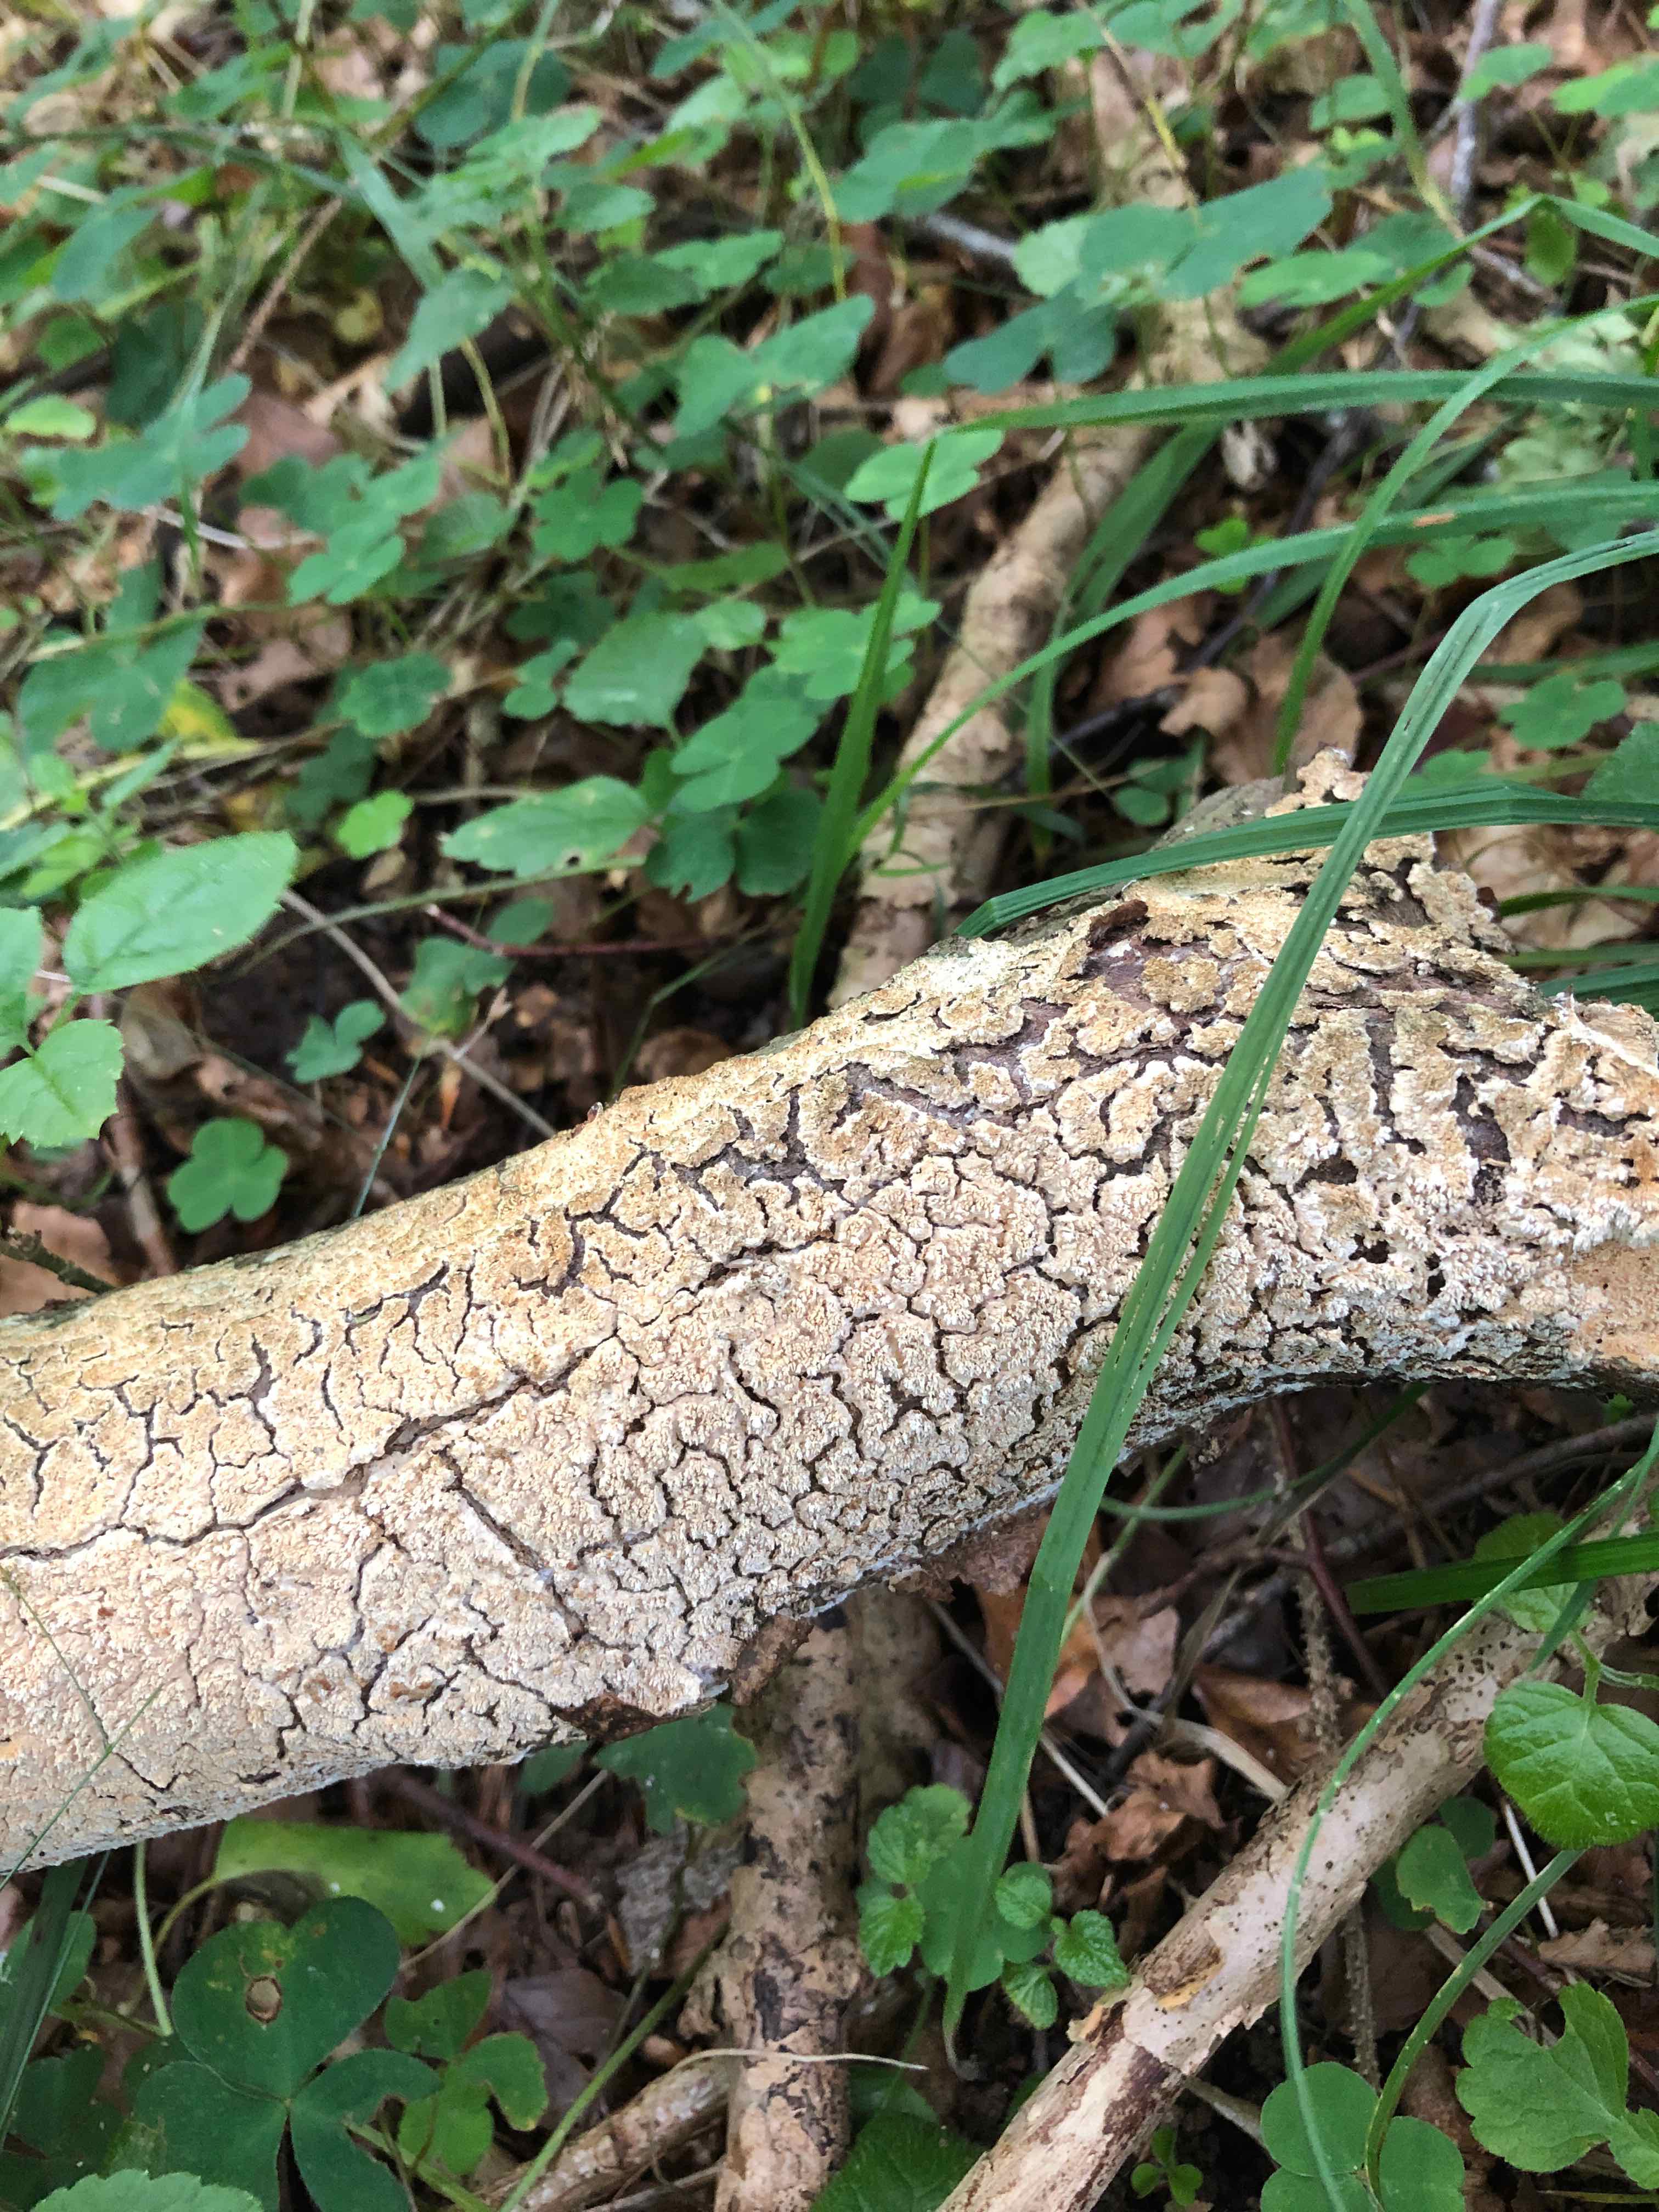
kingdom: Fungi
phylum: Basidiomycota
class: Agaricomycetes
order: Corticiales
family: Corticiaceae
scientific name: Corticiaceae
